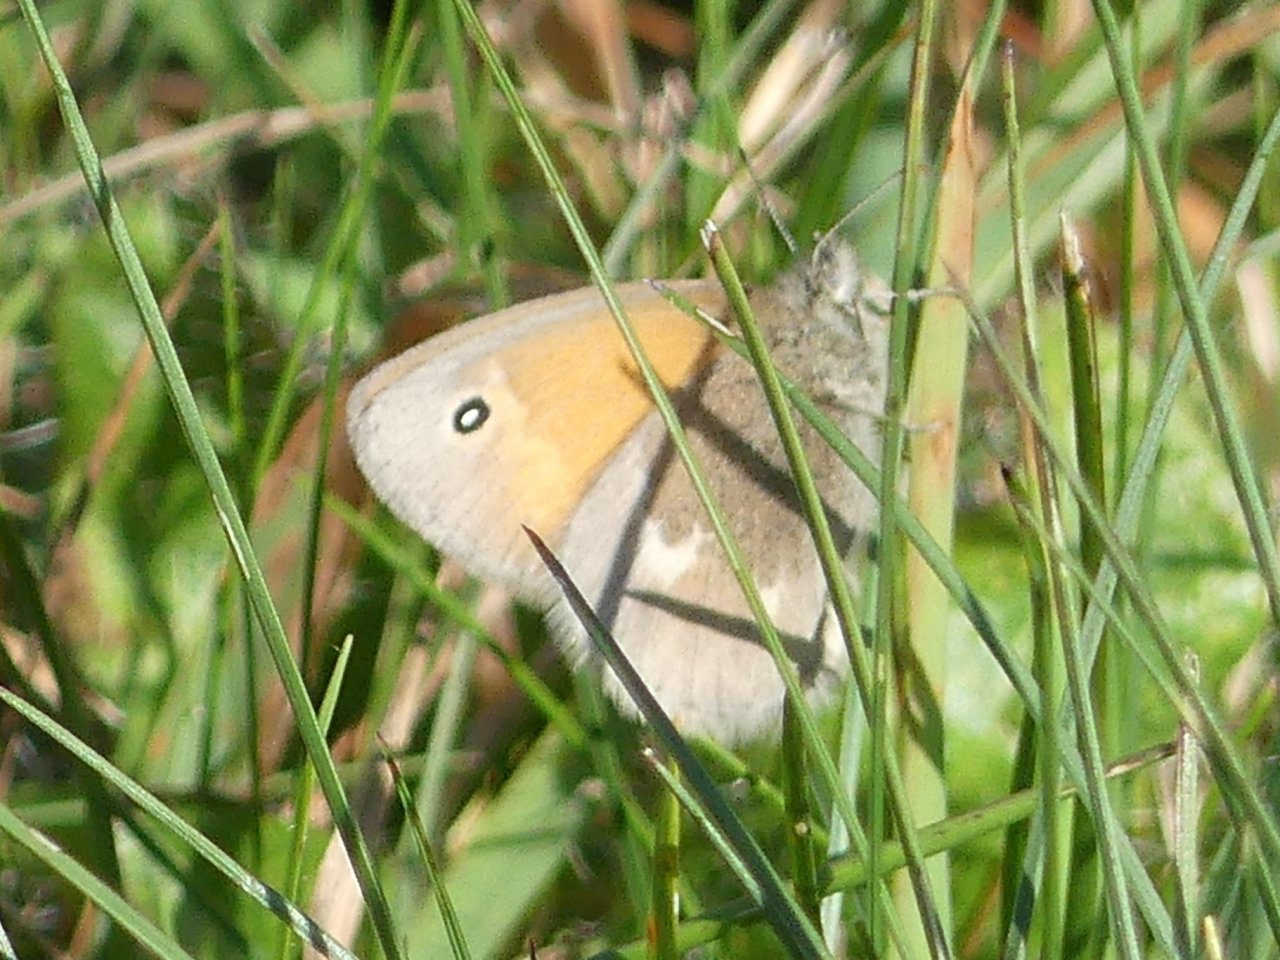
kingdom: Animalia
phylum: Arthropoda
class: Insecta
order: Lepidoptera
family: Nymphalidae
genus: Coenonympha
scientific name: Coenonympha tullia
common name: Large Heath
